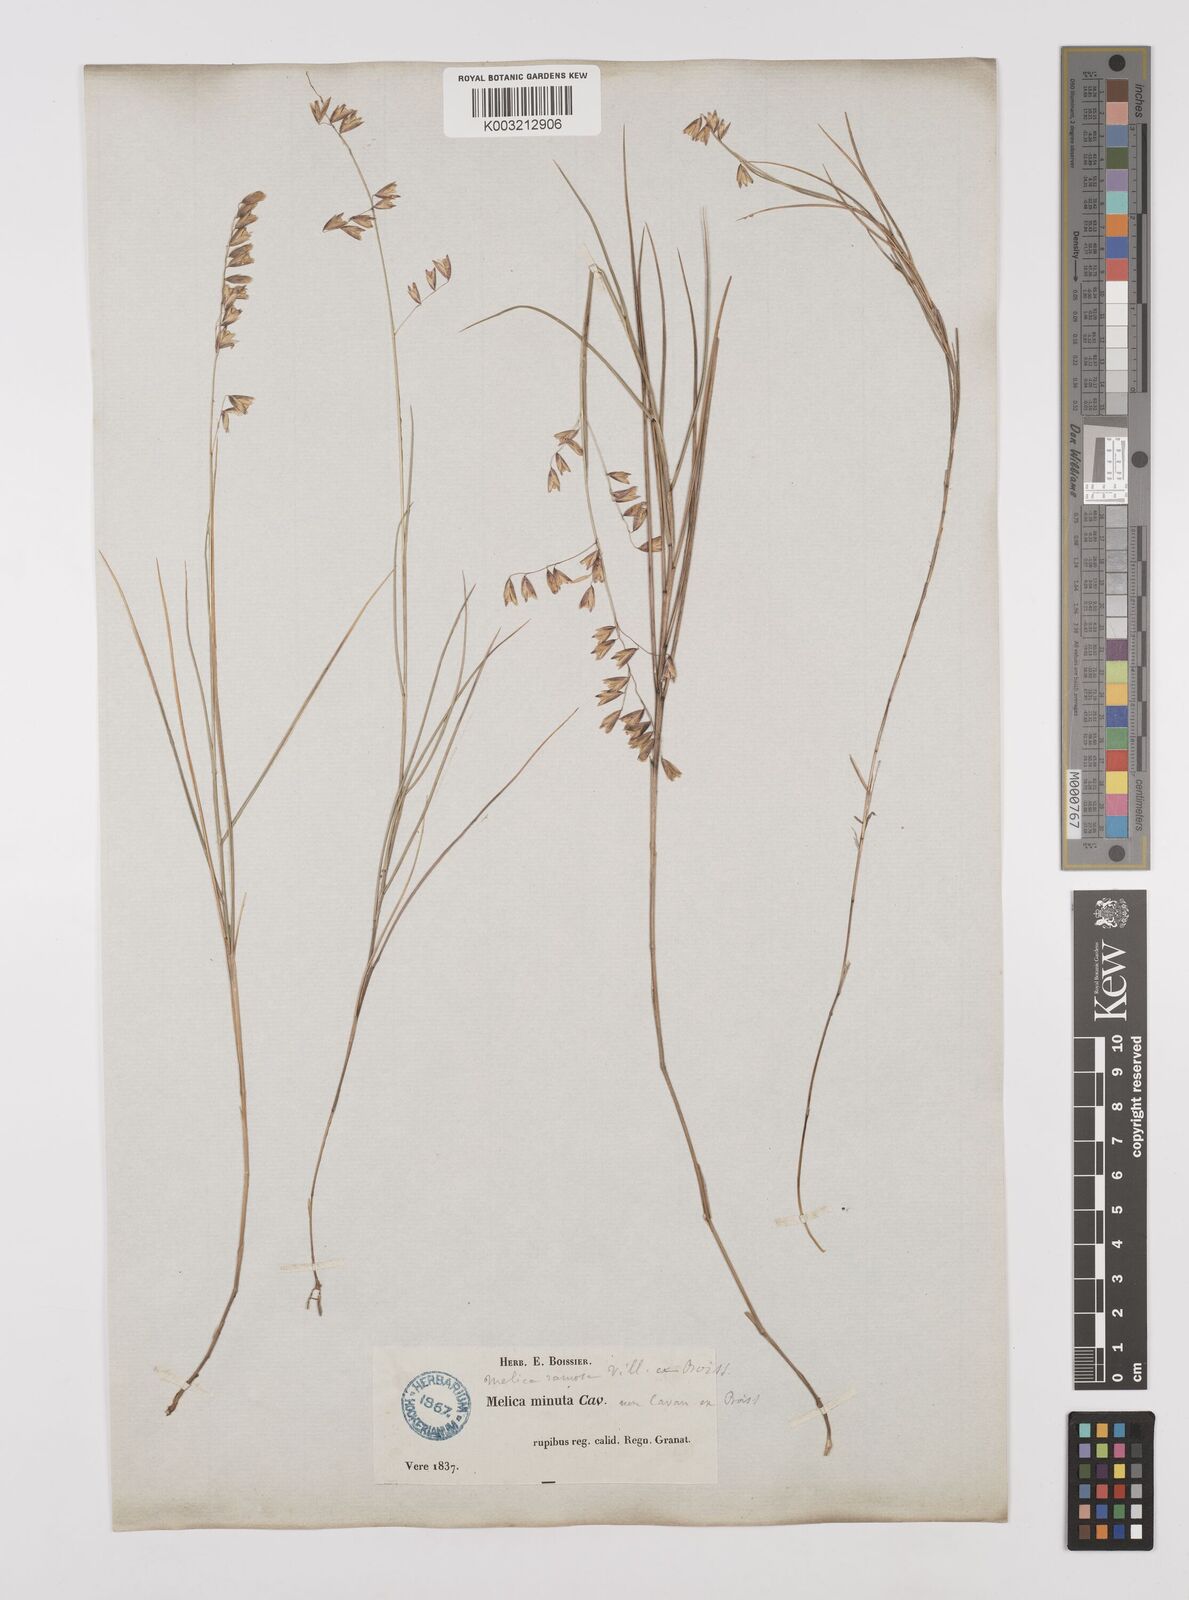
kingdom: Plantae
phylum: Tracheophyta
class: Liliopsida
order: Poales
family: Poaceae
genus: Melica
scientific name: Melica minuta
